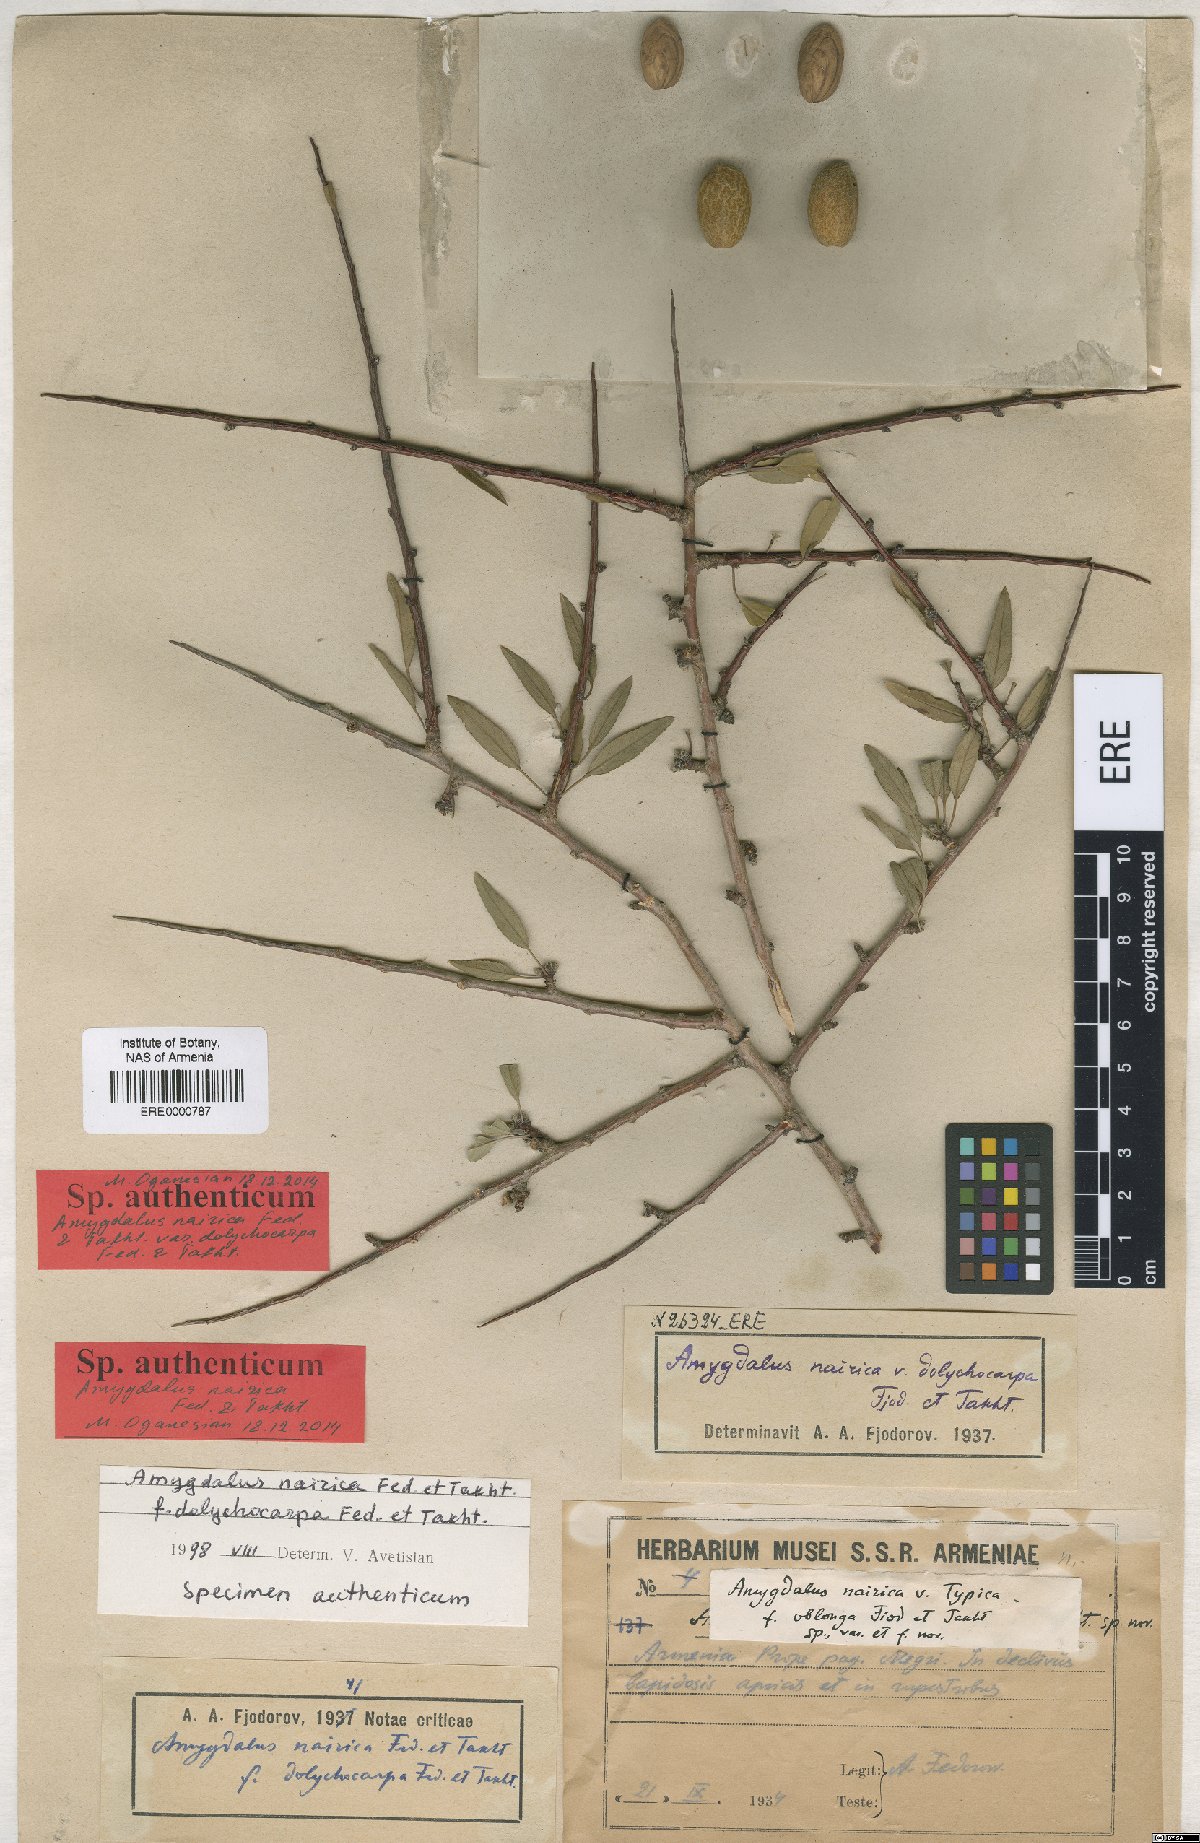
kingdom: Plantae
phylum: Tracheophyta
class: Magnoliopsida
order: Rosales
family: Rosaceae
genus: Prunus
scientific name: Prunus nairica
